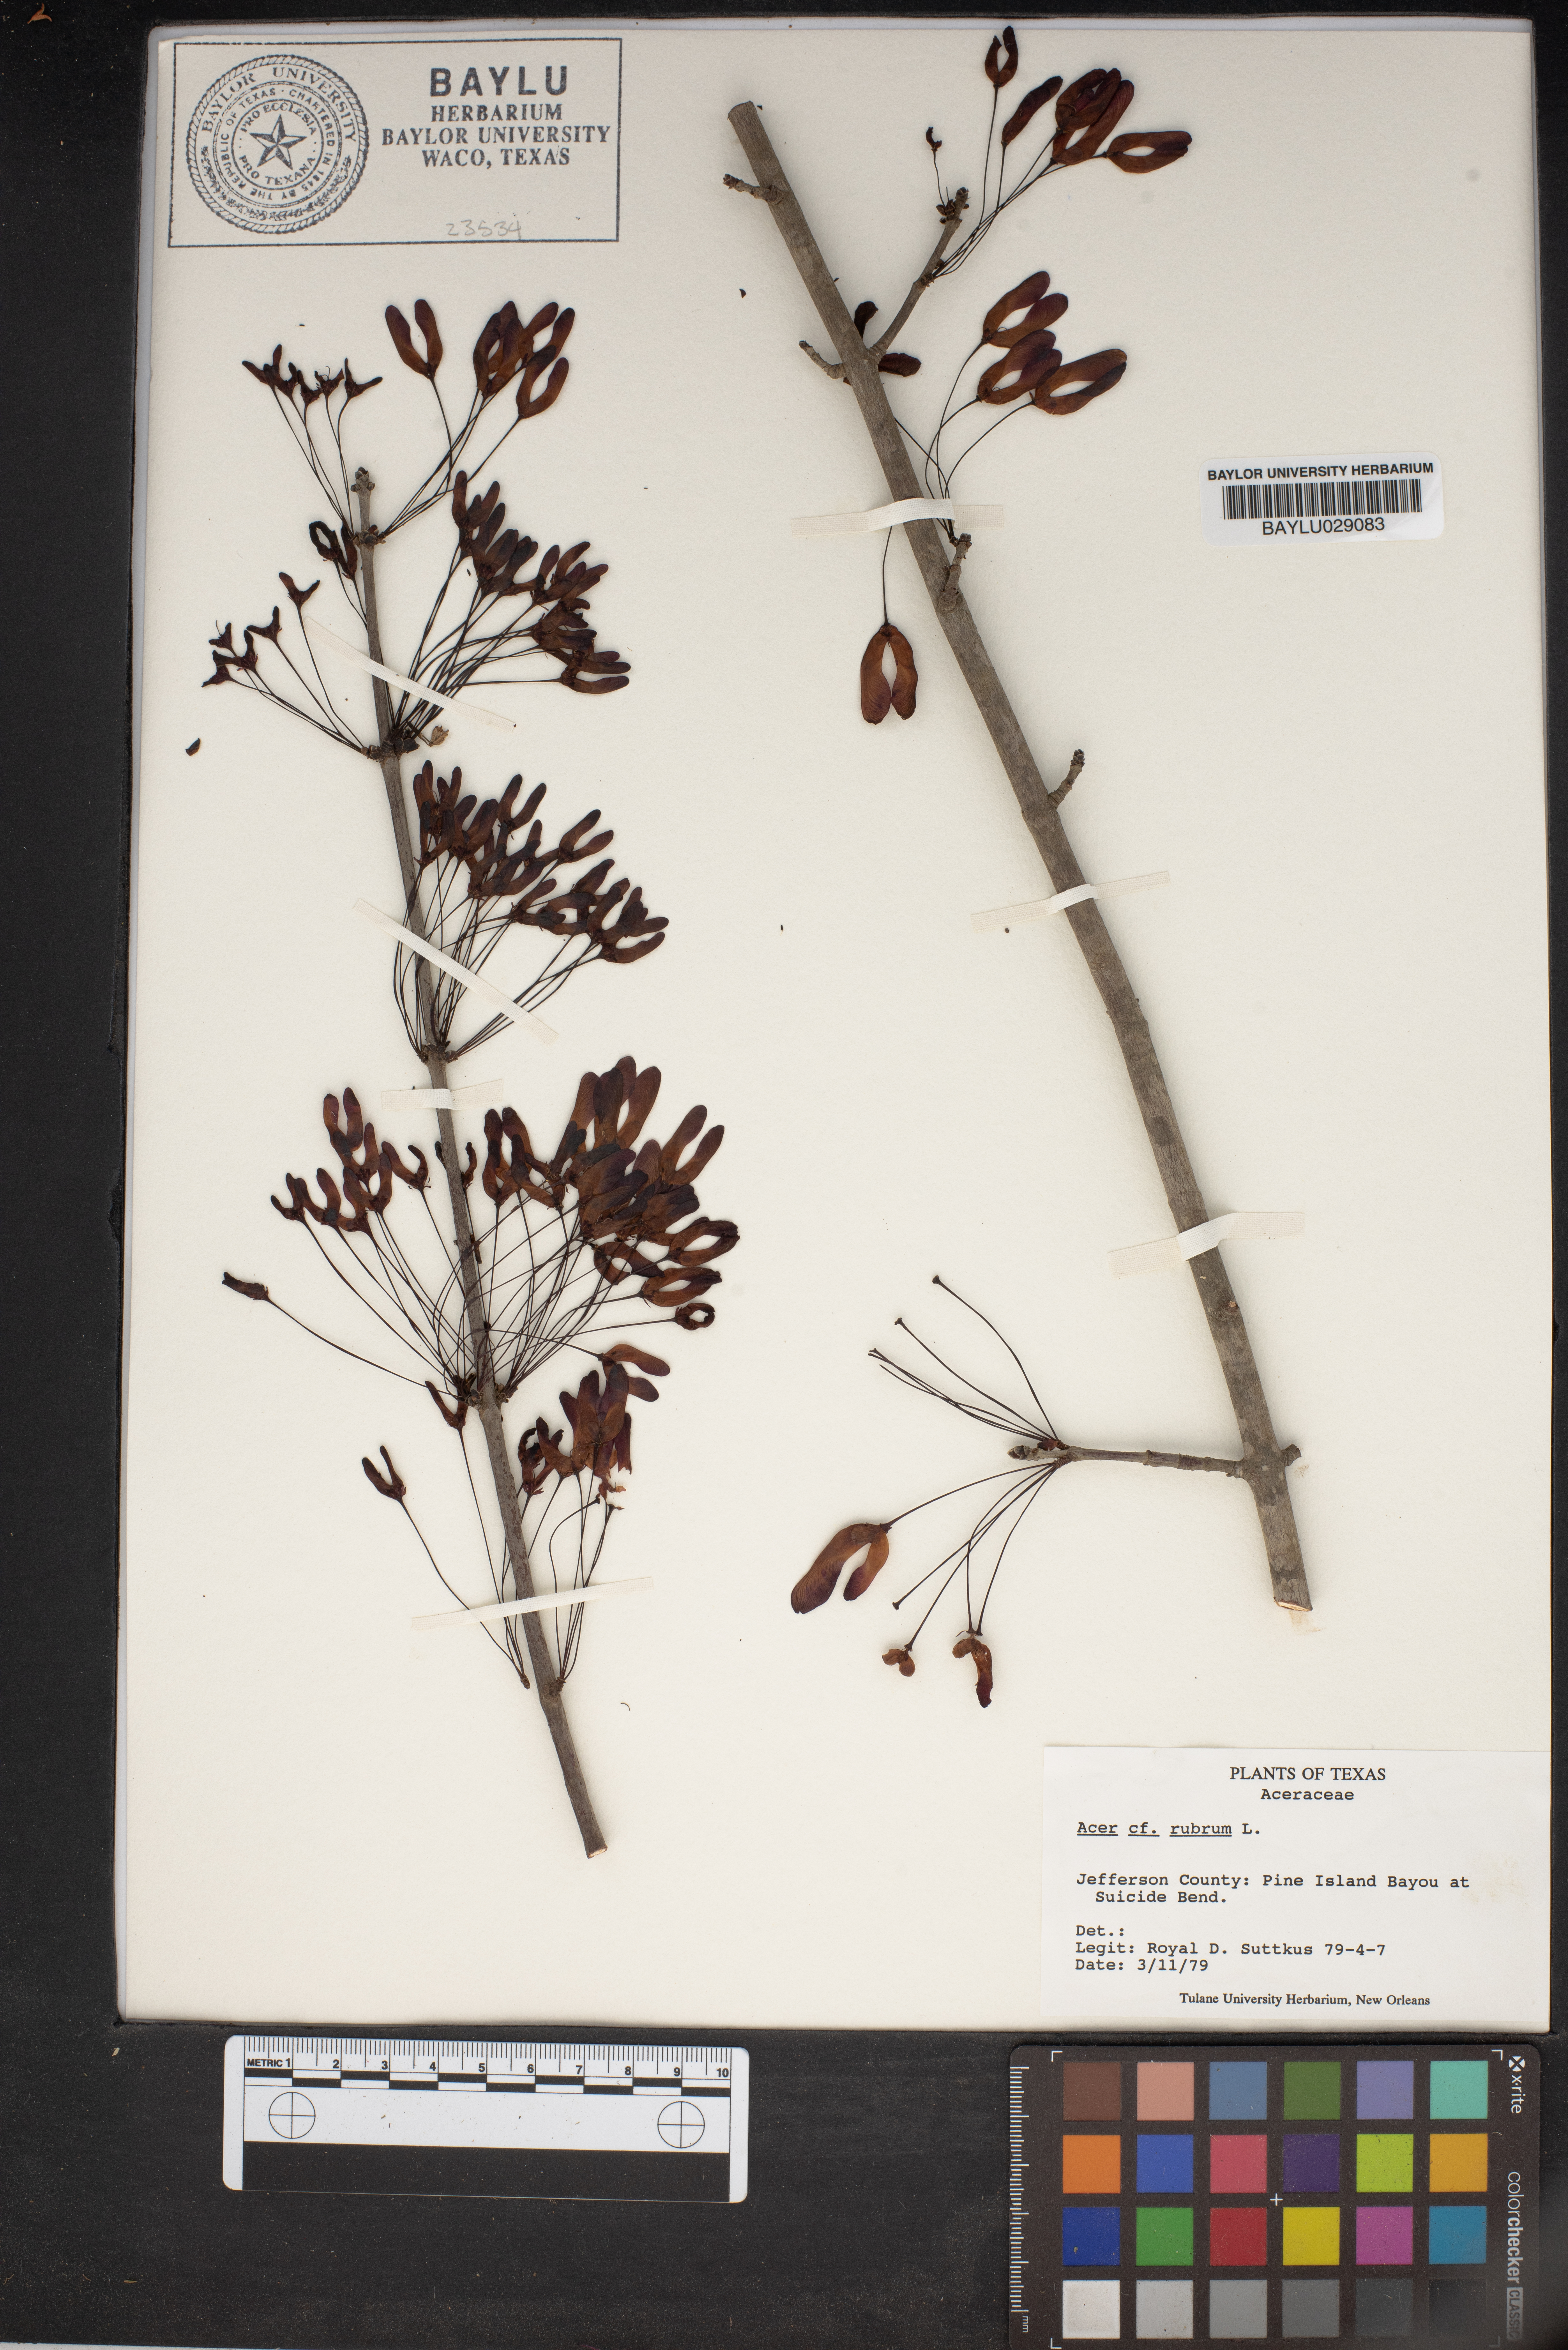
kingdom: Plantae
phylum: Tracheophyta
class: Magnoliopsida
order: Sapindales
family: Sapindaceae
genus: Acer
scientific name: Acer rubrum
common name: Red maple
